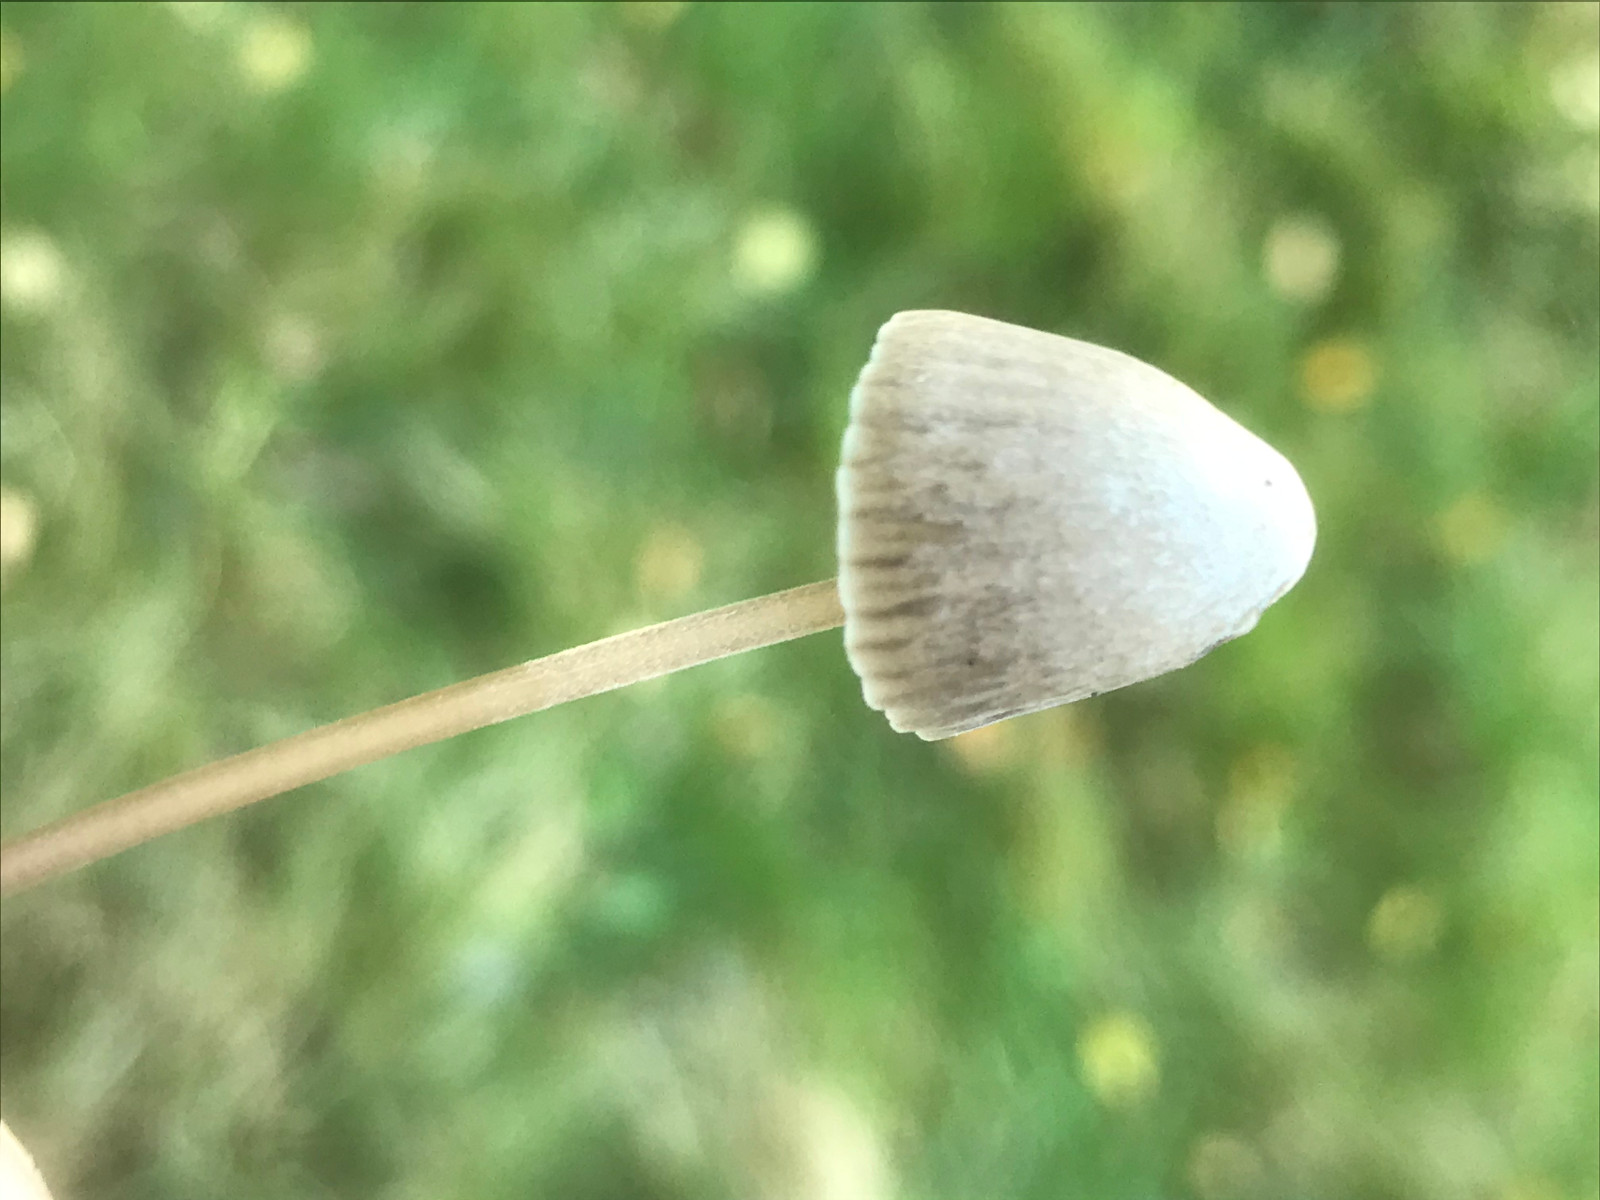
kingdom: Fungi
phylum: Basidiomycota
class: Agaricomycetes
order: Agaricales
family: Mycenaceae
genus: Mycena
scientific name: Mycena
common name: huesvamp
